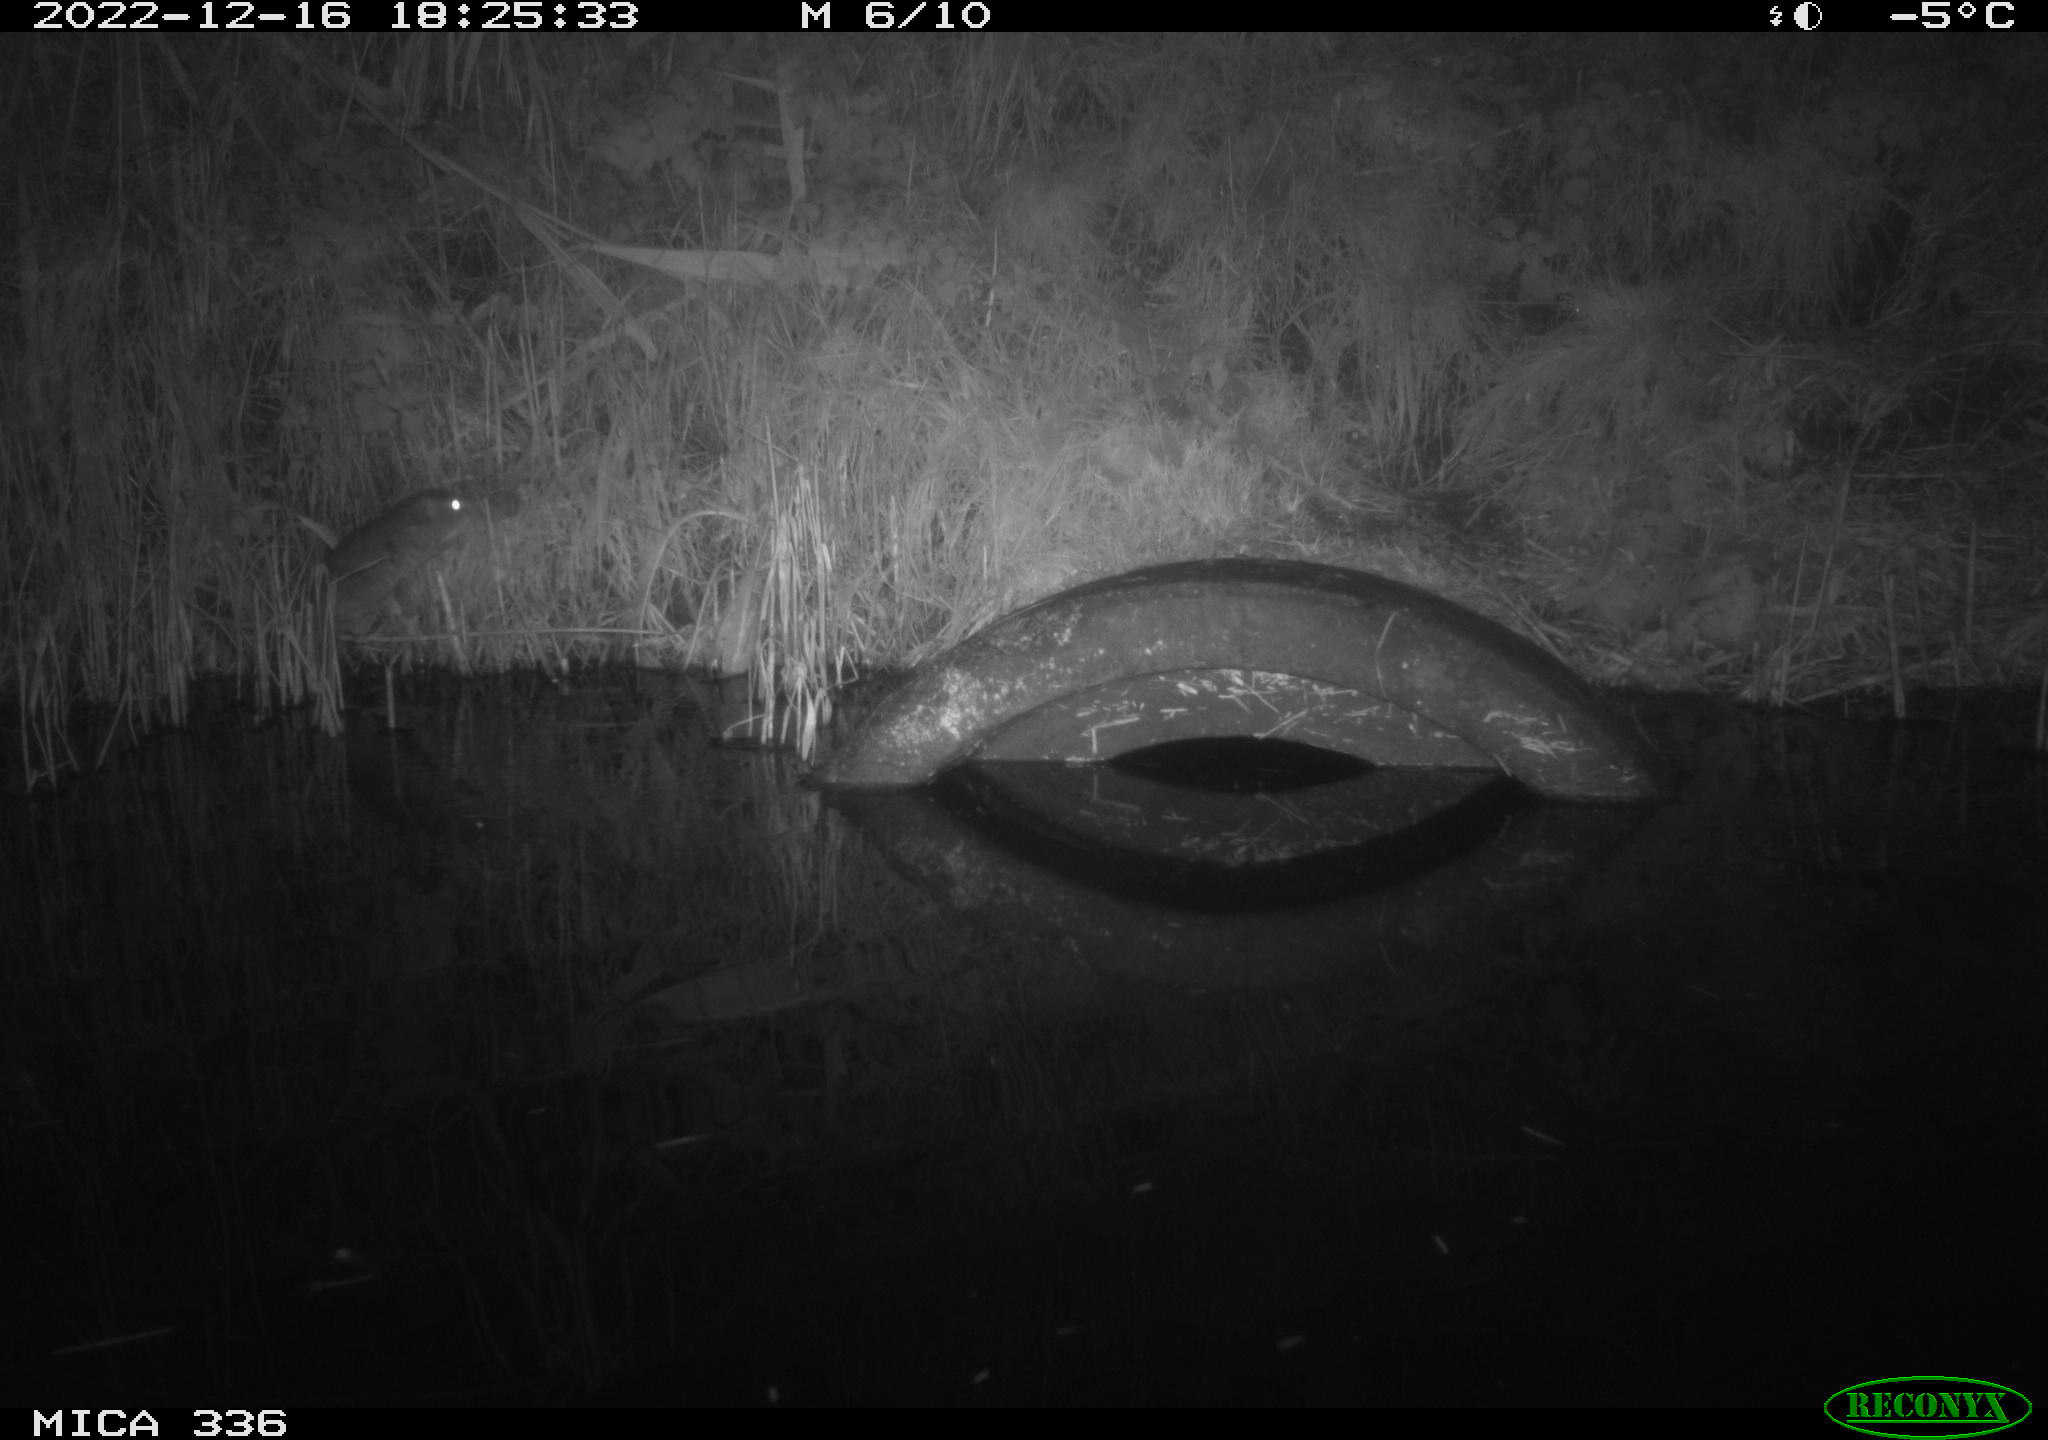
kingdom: Animalia
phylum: Chordata
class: Mammalia
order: Rodentia
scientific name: Rodentia
